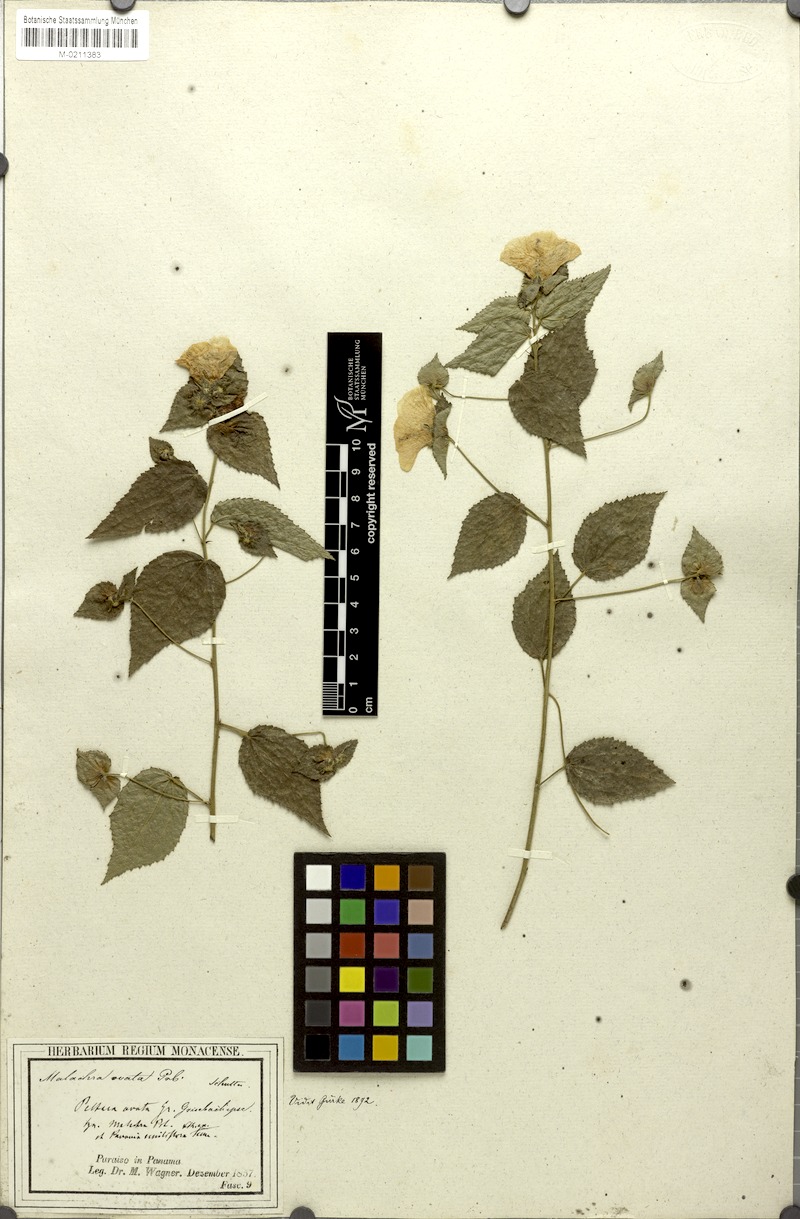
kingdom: Plantae
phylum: Tracheophyta
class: Magnoliopsida
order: Malvales
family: Malvaceae
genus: Peltaea
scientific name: Peltaea ovata
